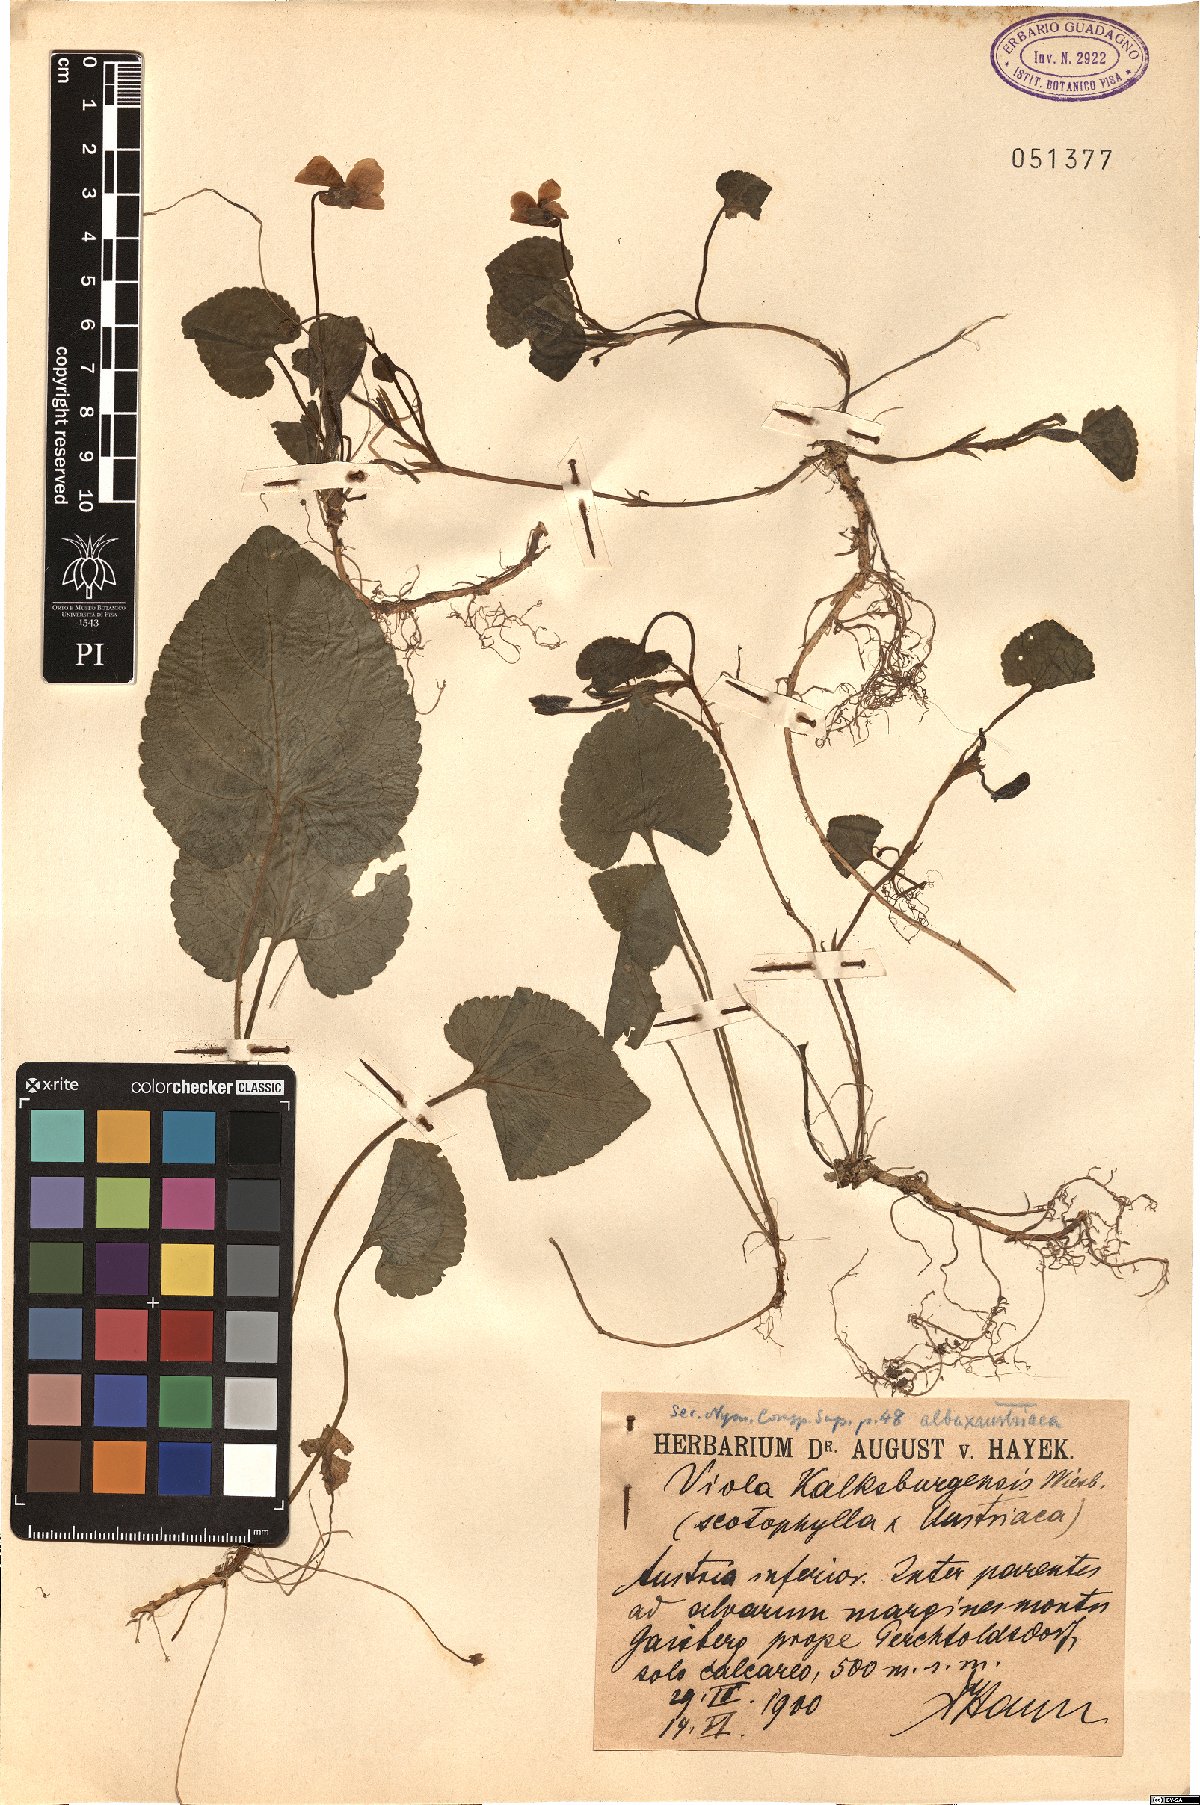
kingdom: Plantae
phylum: Tracheophyta
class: Magnoliopsida
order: Malpighiales
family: Violaceae
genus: Viola
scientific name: Viola kalksburgensis
